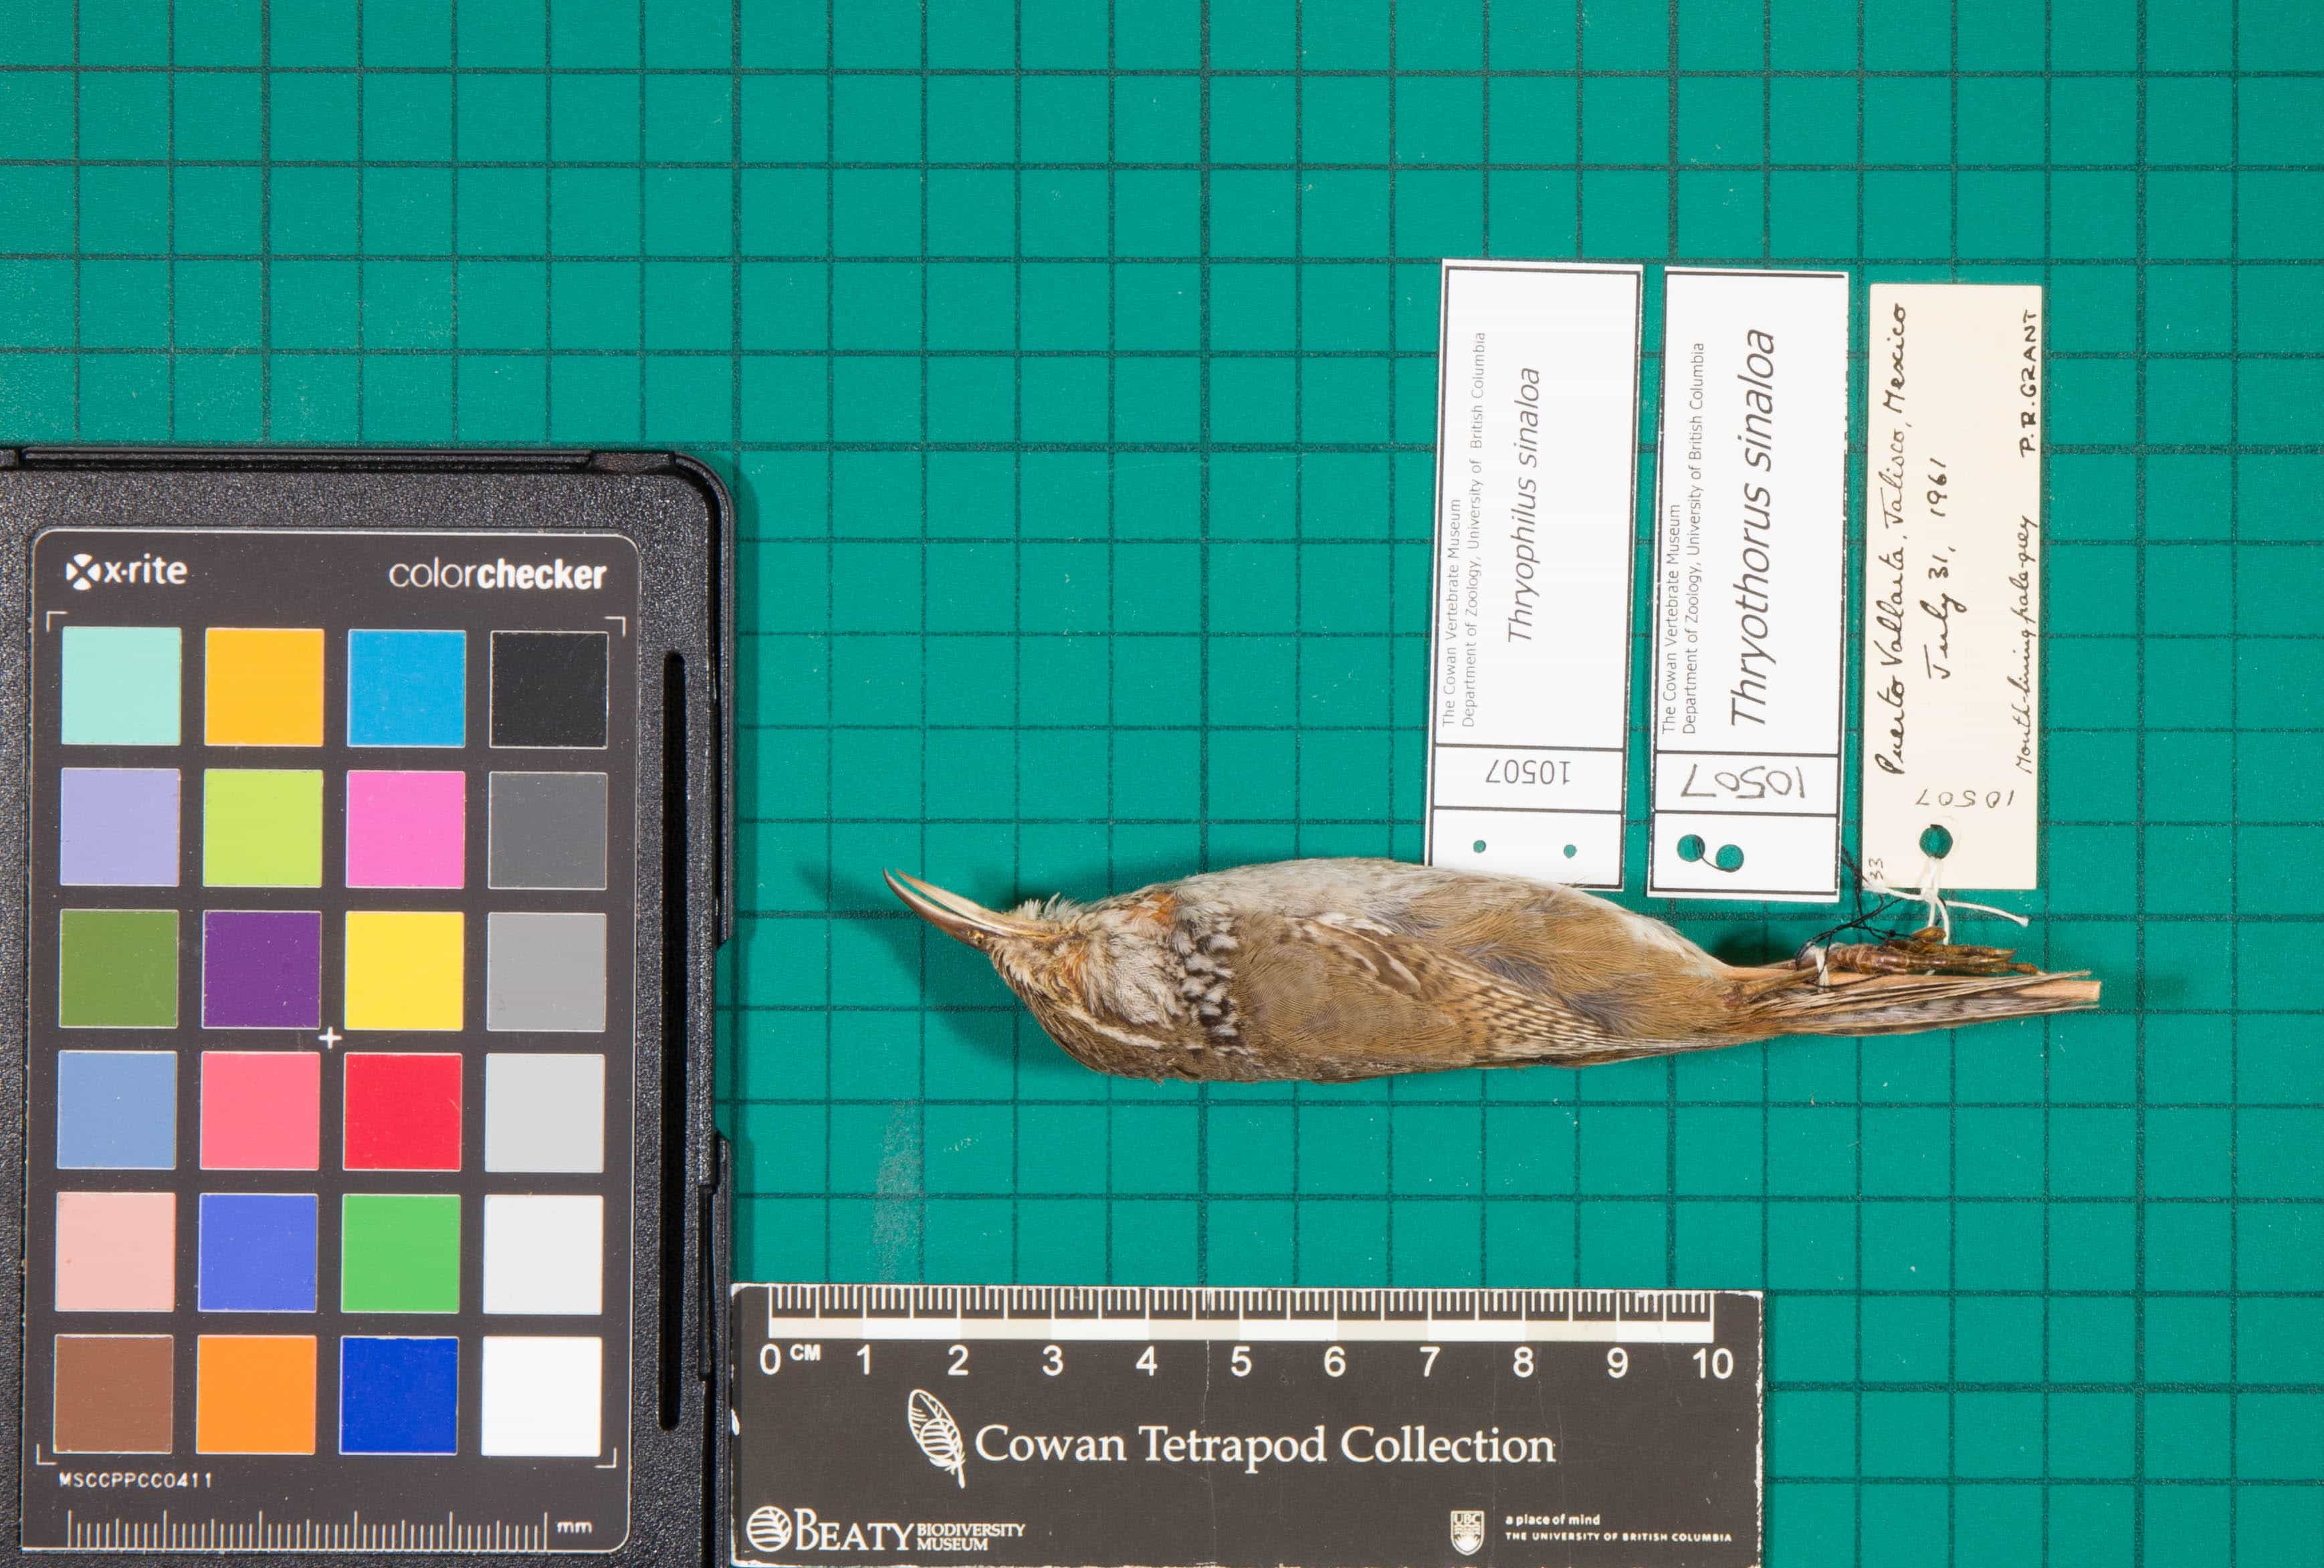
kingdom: Animalia
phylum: Chordata
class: Aves
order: Passeriformes
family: Troglodytidae
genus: Thryophilus
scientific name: Thryophilus sinaloa
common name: Sinaloa Wren
